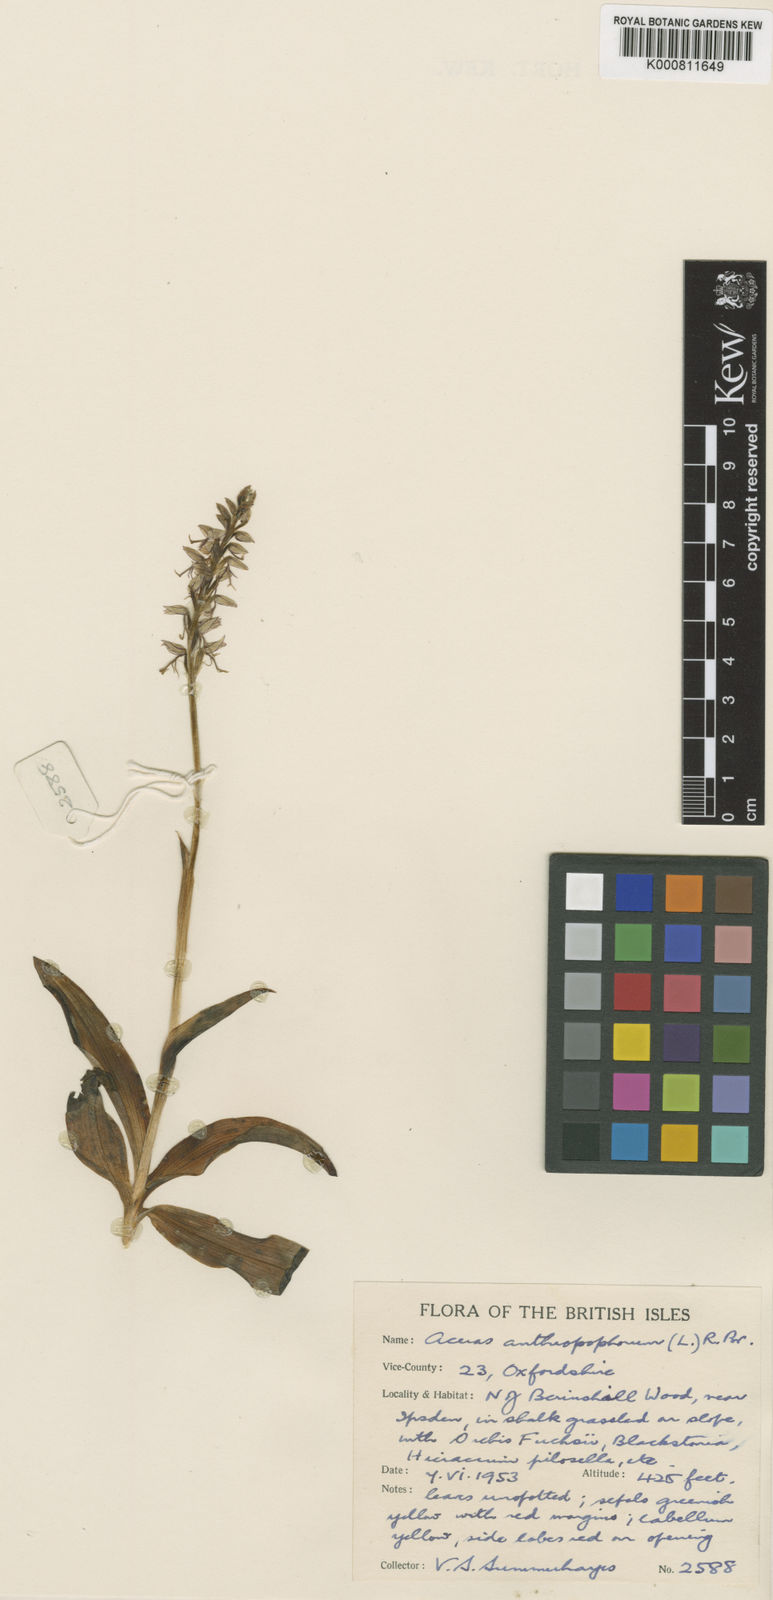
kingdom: Plantae
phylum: Tracheophyta
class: Liliopsida
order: Asparagales
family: Orchidaceae
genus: Orchis
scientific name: Orchis
